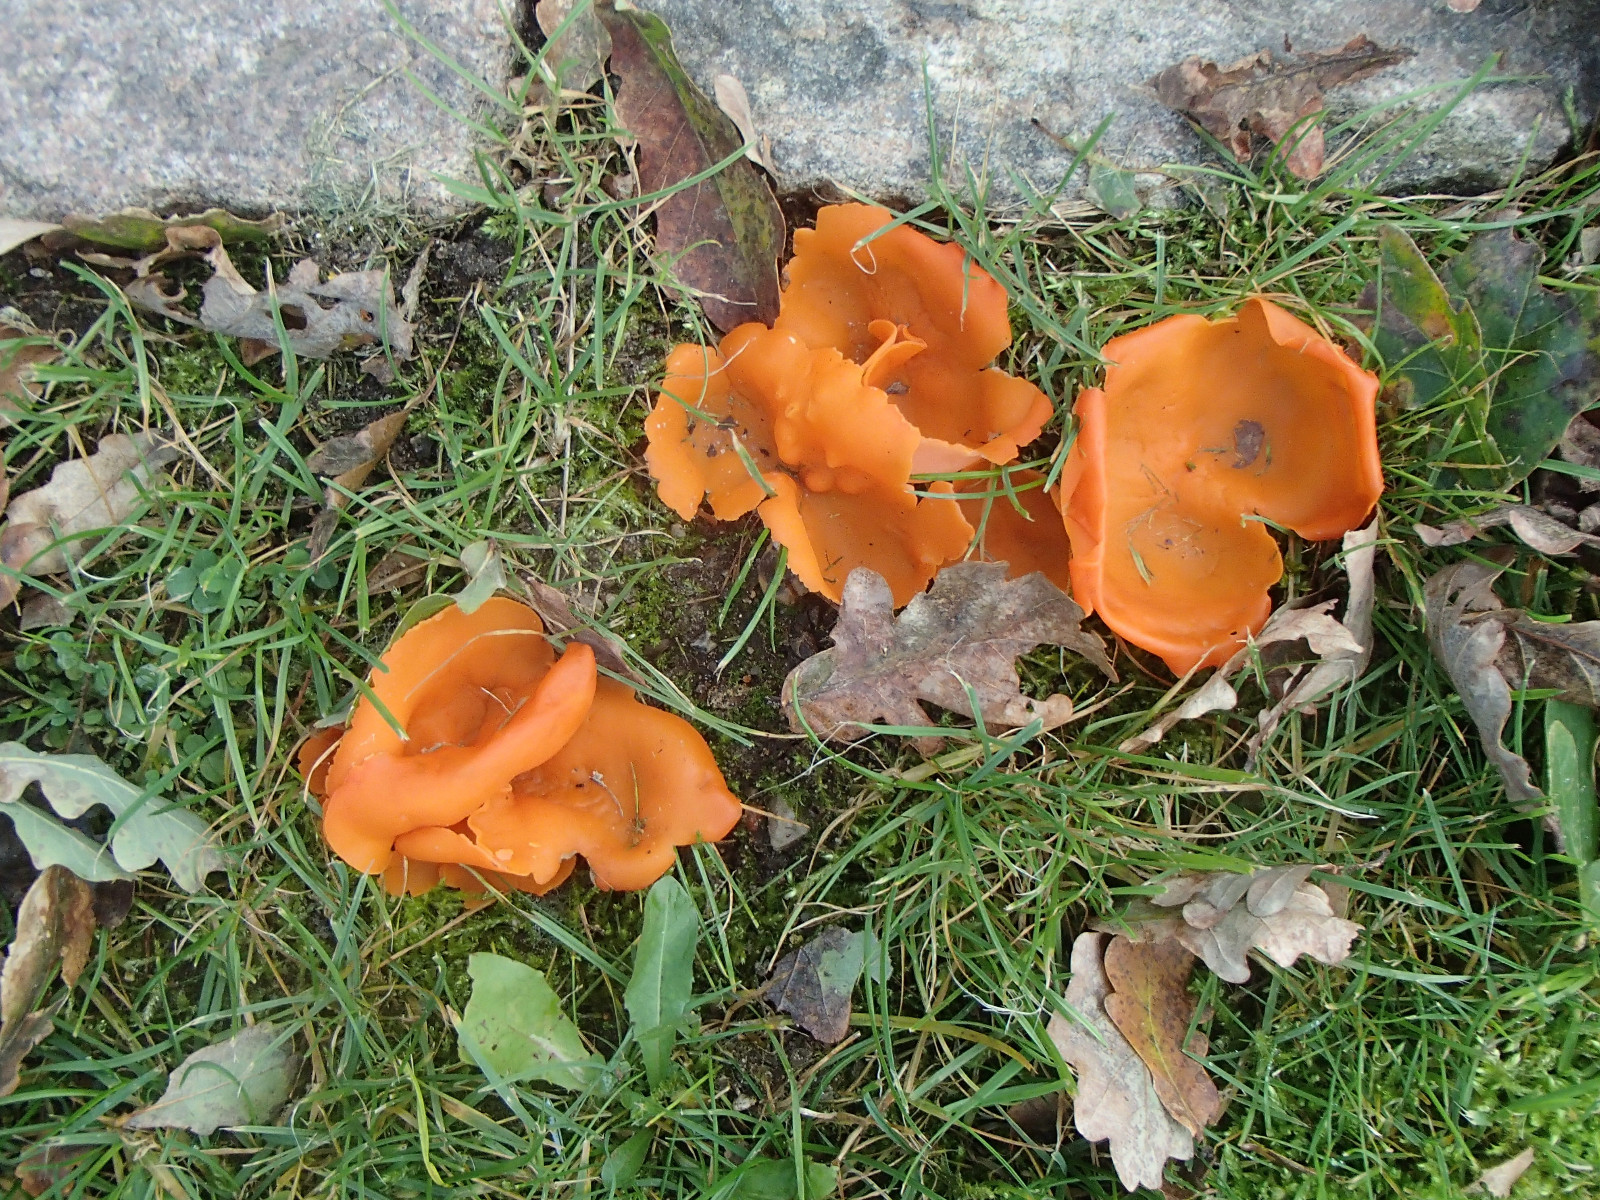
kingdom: Fungi
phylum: Ascomycota
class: Pezizomycetes
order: Pezizales
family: Pyronemataceae
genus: Aleuria
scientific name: Aleuria aurantia
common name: almindelig orangebæger
